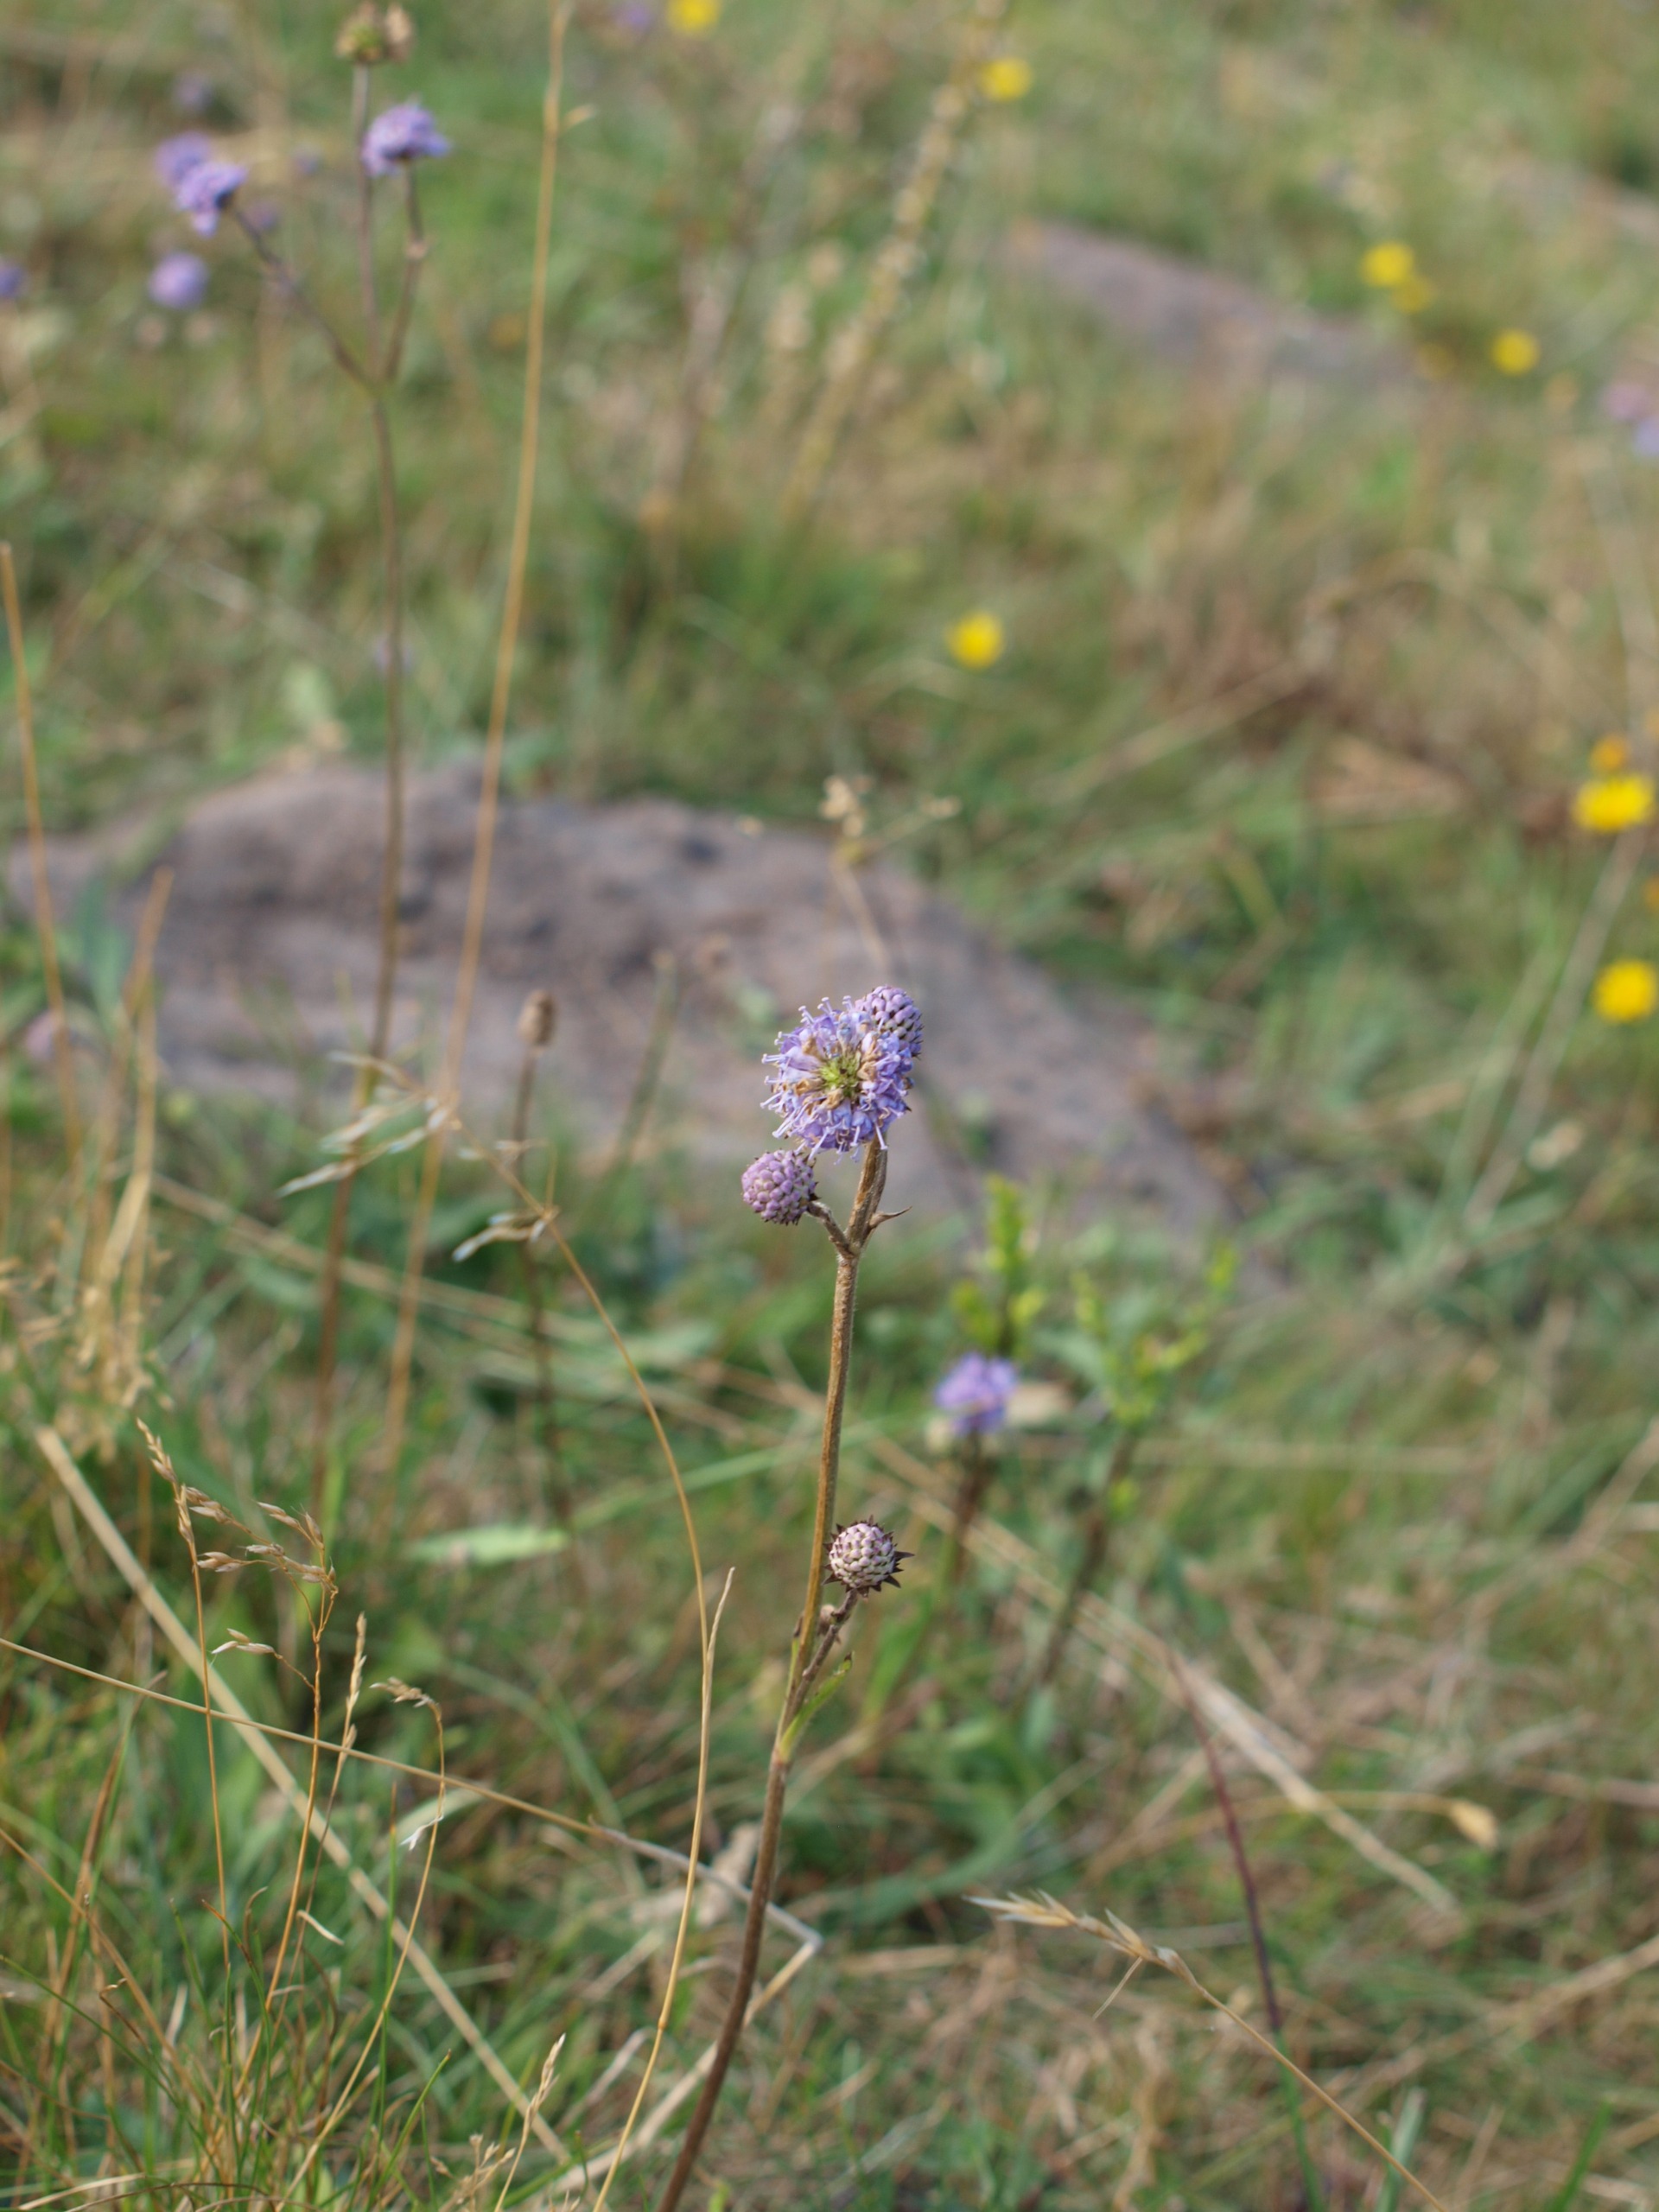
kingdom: Plantae
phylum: Tracheophyta
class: Magnoliopsida
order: Dipsacales
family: Caprifoliaceae
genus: Succisa
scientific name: Succisa pratensis
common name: Djævelsbid
